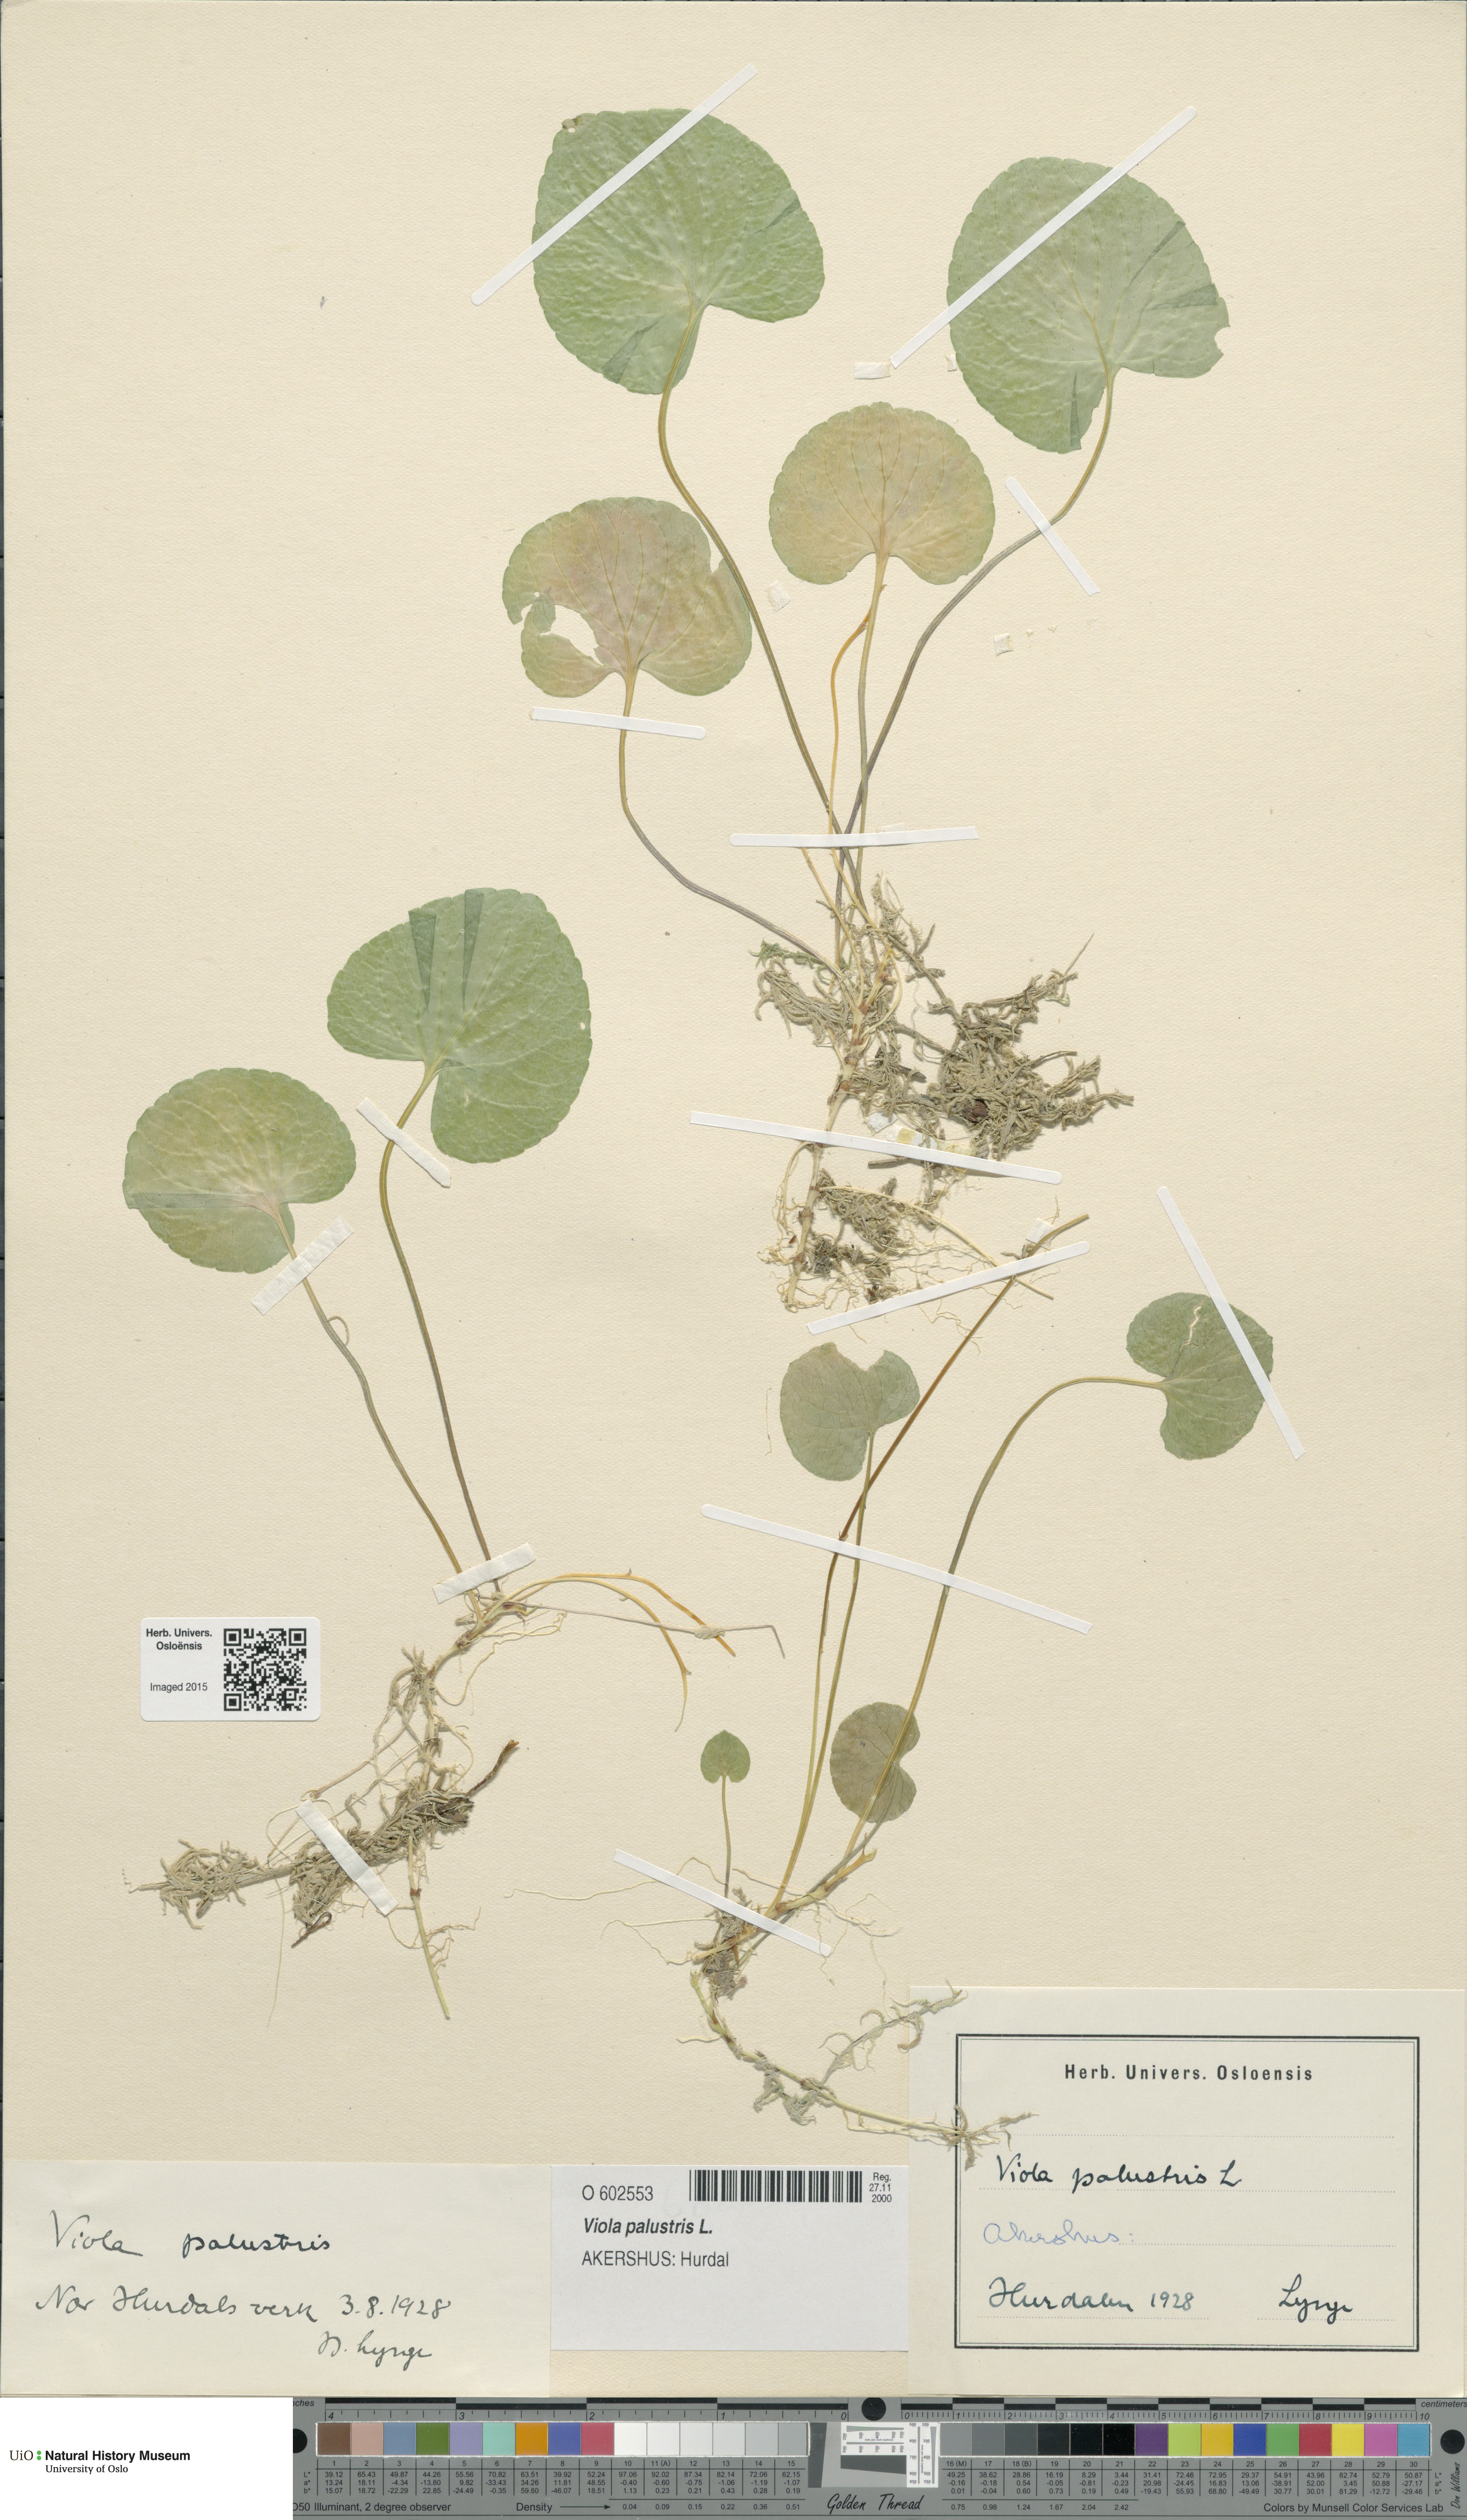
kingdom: Plantae
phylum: Tracheophyta
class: Magnoliopsida
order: Malpighiales
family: Violaceae
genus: Viola
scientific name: Viola palustris
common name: Marsh violet
